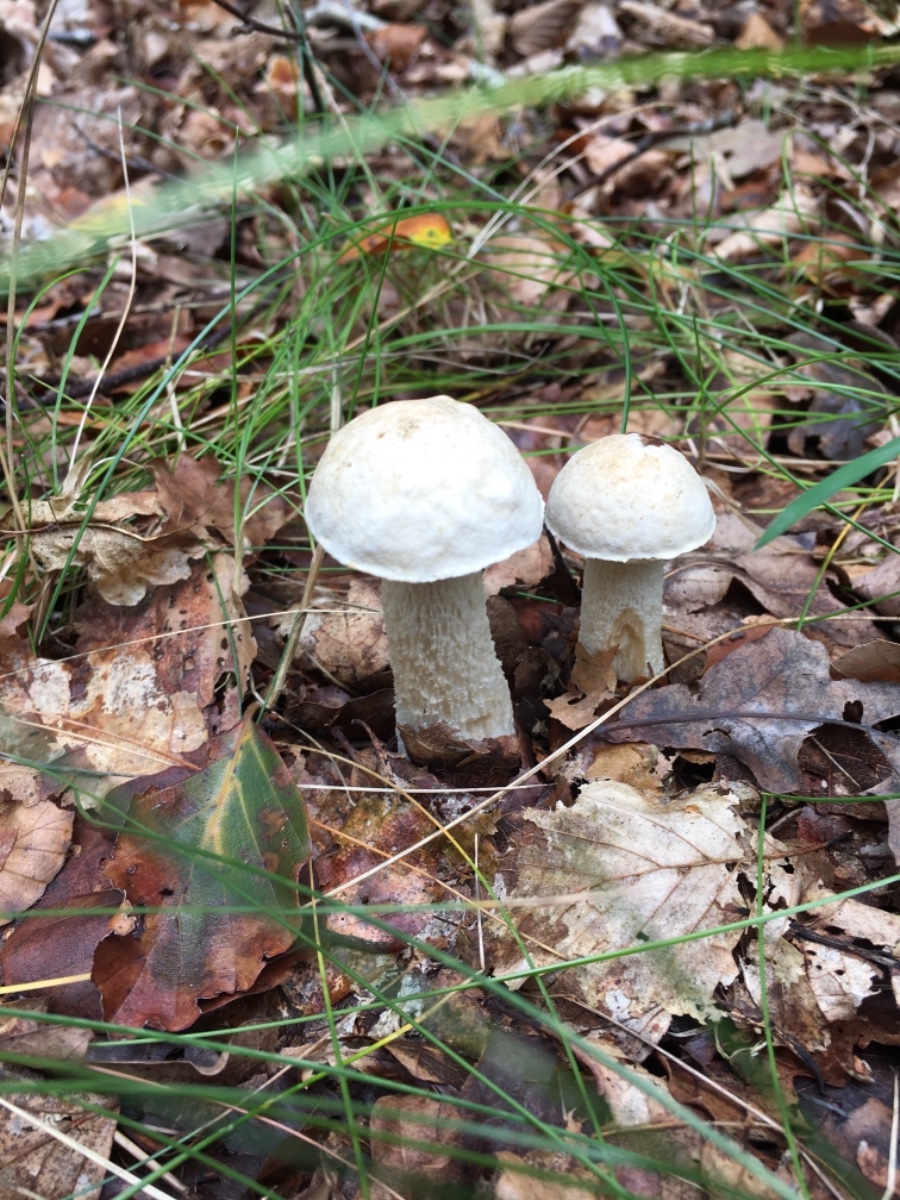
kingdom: Fungi
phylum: Basidiomycota
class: Agaricomycetes
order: Boletales
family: Boletaceae
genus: Leccinum
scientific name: Leccinum scabrum
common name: hvid skælrørhat
